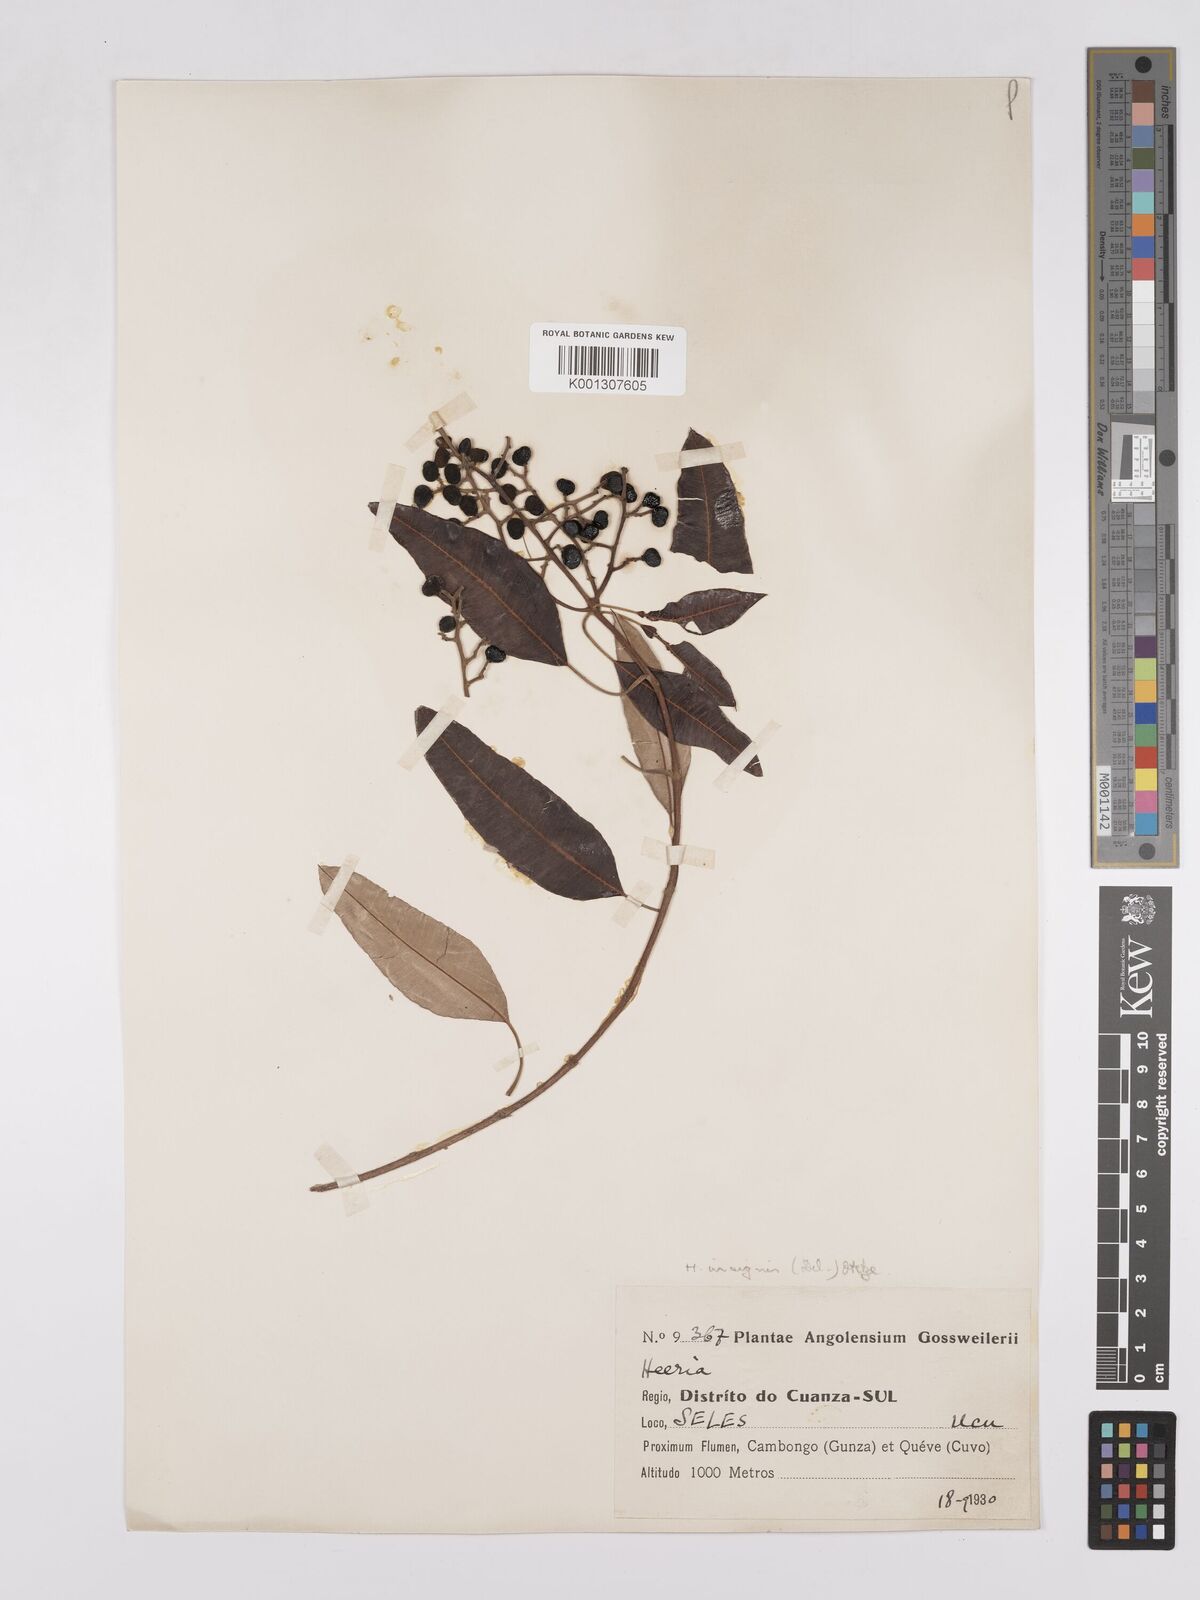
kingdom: Plantae
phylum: Tracheophyta
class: Magnoliopsida
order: Sapindales
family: Anacardiaceae
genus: Ozoroa
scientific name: Ozoroa insignis
